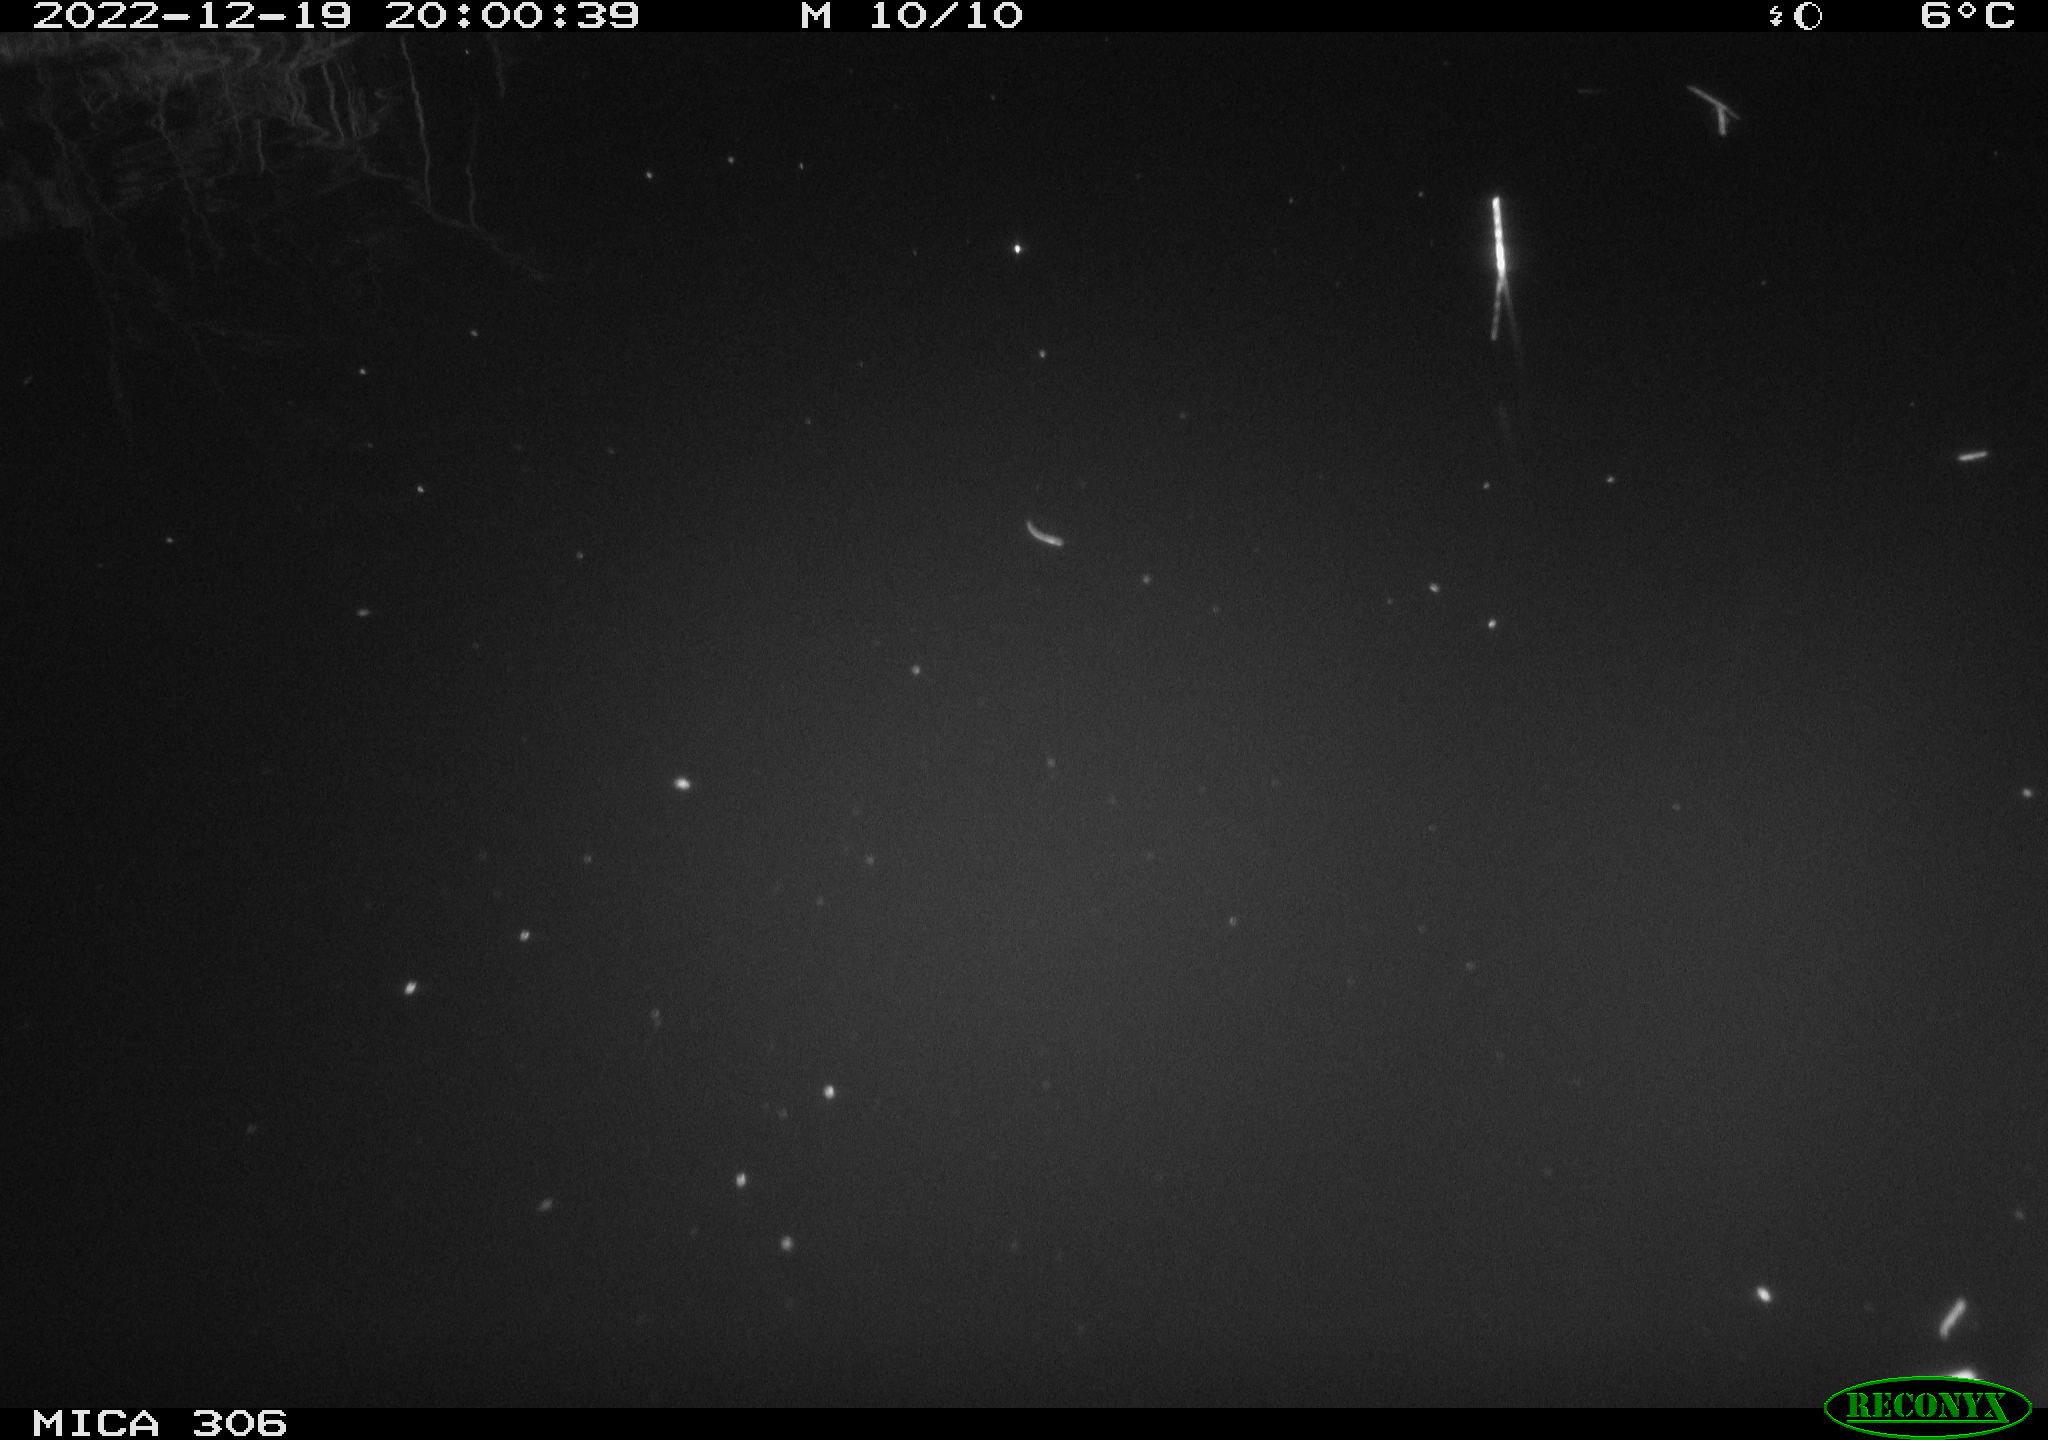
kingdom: Animalia
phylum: Chordata
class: Mammalia
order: Rodentia
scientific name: Rodentia
